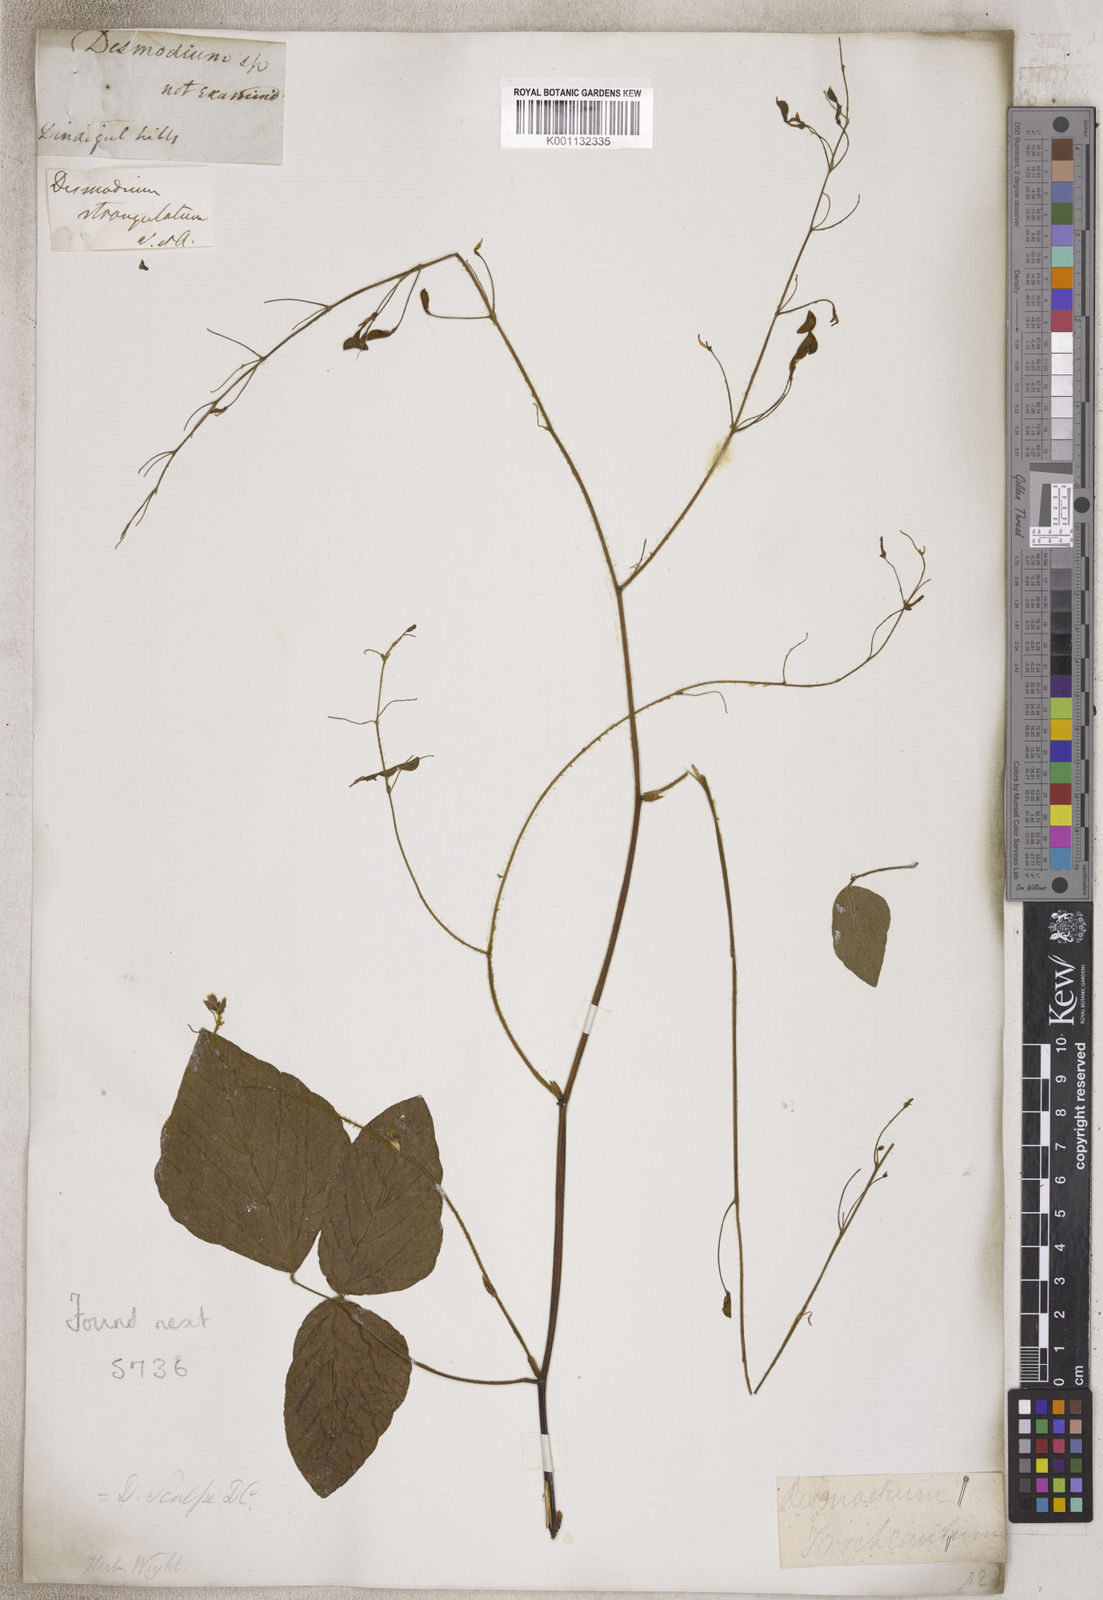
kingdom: Plantae
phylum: Tracheophyta
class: Magnoliopsida
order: Fabales
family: Fabaceae
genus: Desmodium
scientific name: Desmodium
